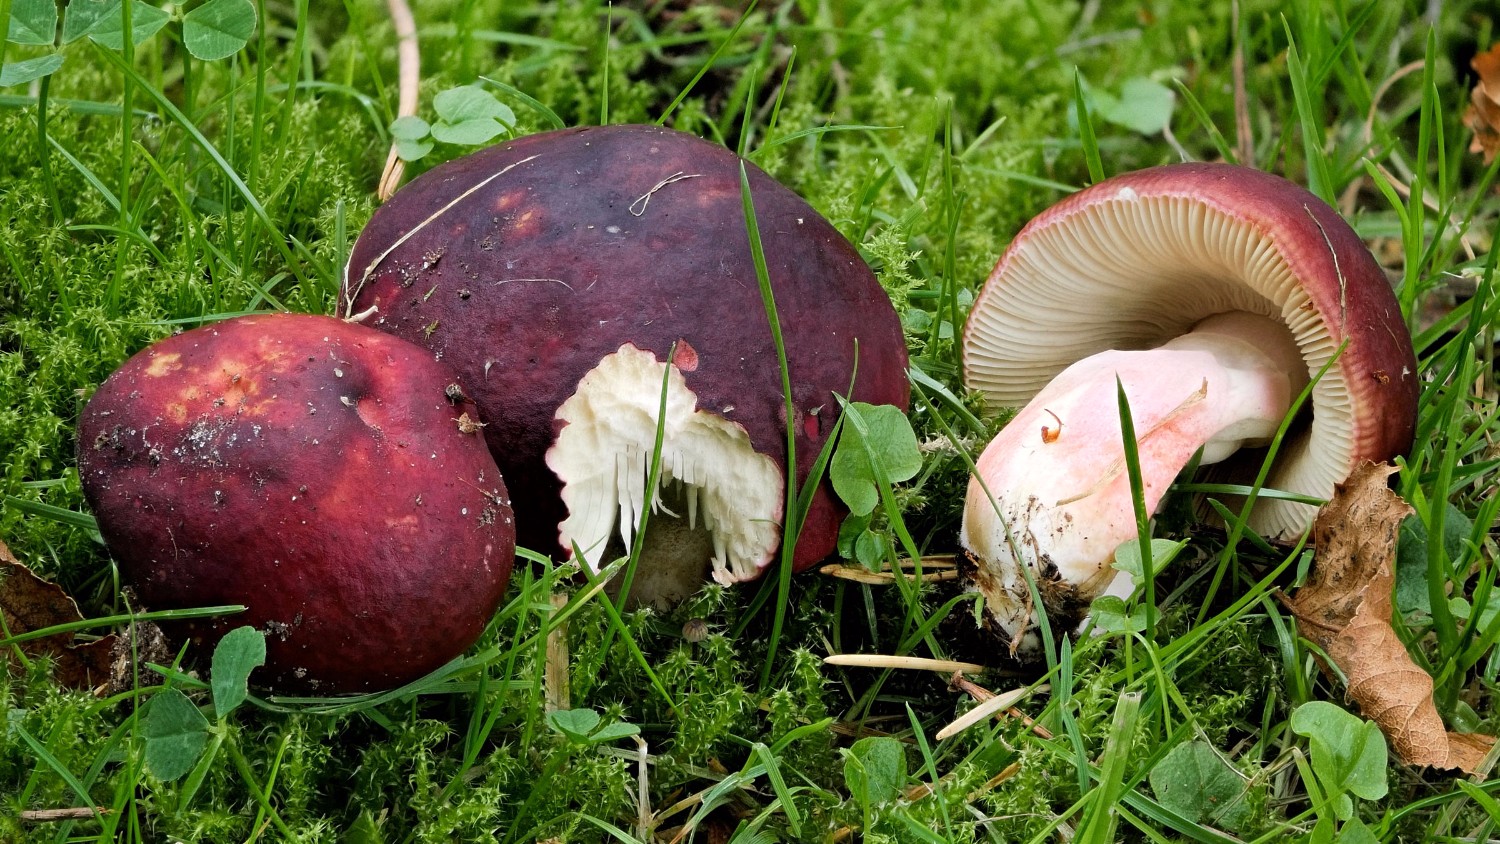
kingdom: Fungi
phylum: Basidiomycota
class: Agaricomycetes
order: Russulales
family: Russulaceae
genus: Russula
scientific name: Russula xerampelina
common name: hummer-skørhat
